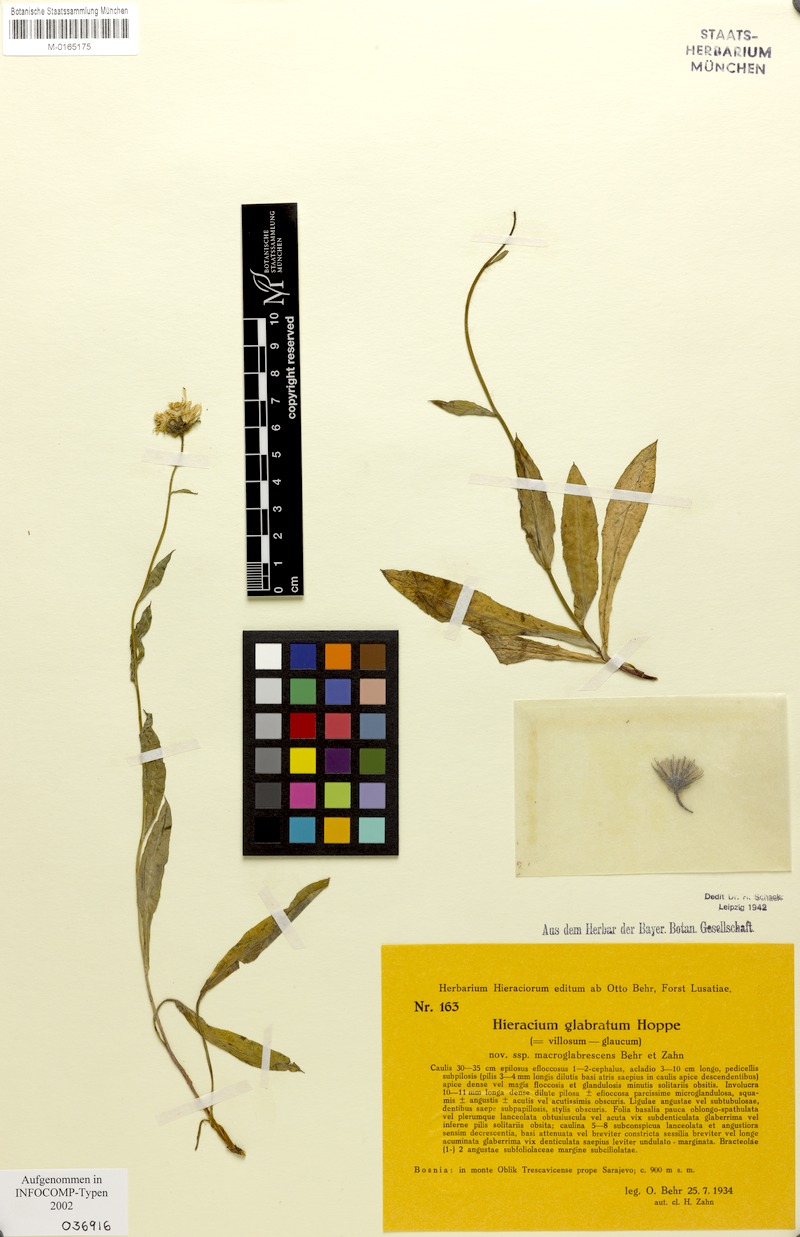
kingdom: Plantae
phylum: Tracheophyta
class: Magnoliopsida
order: Asterales
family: Asteraceae
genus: Hieracium
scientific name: Hieracium glabratum
